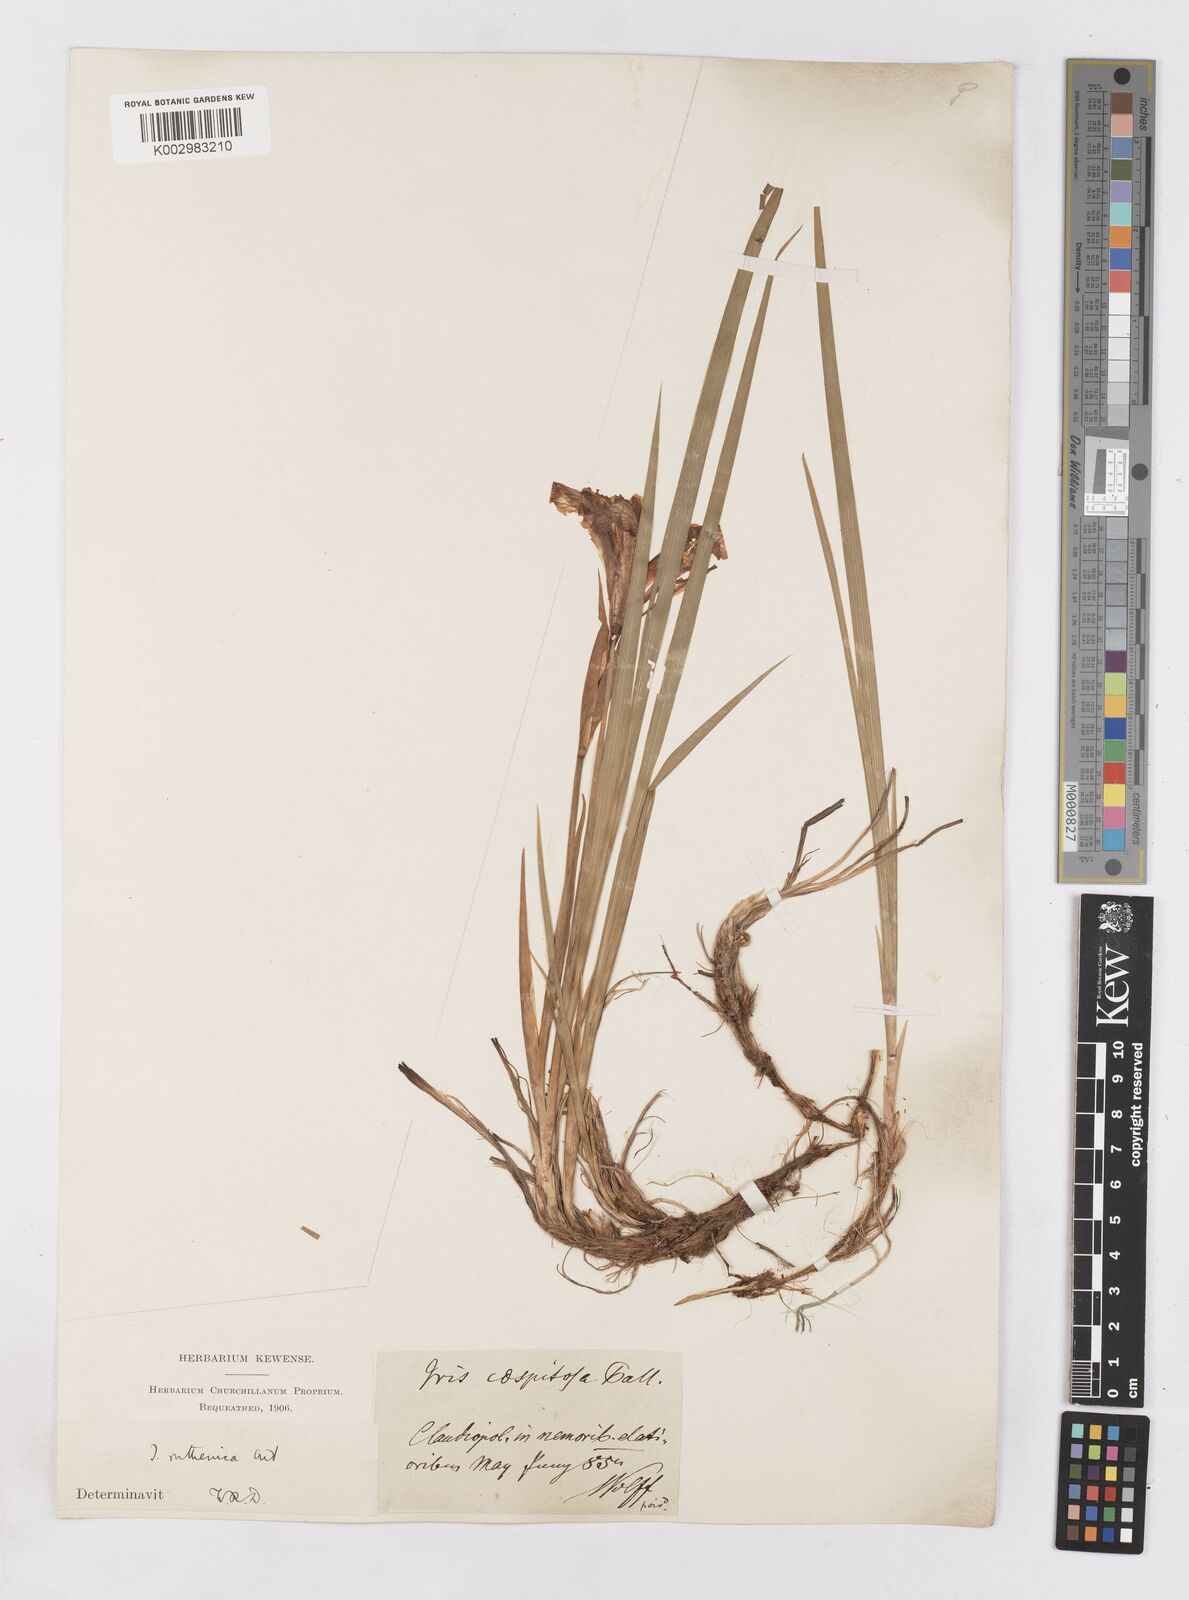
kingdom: Plantae
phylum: Tracheophyta
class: Liliopsida
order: Asparagales
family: Iridaceae
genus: Iris
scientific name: Iris ruthenica
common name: Purple-bract iris
